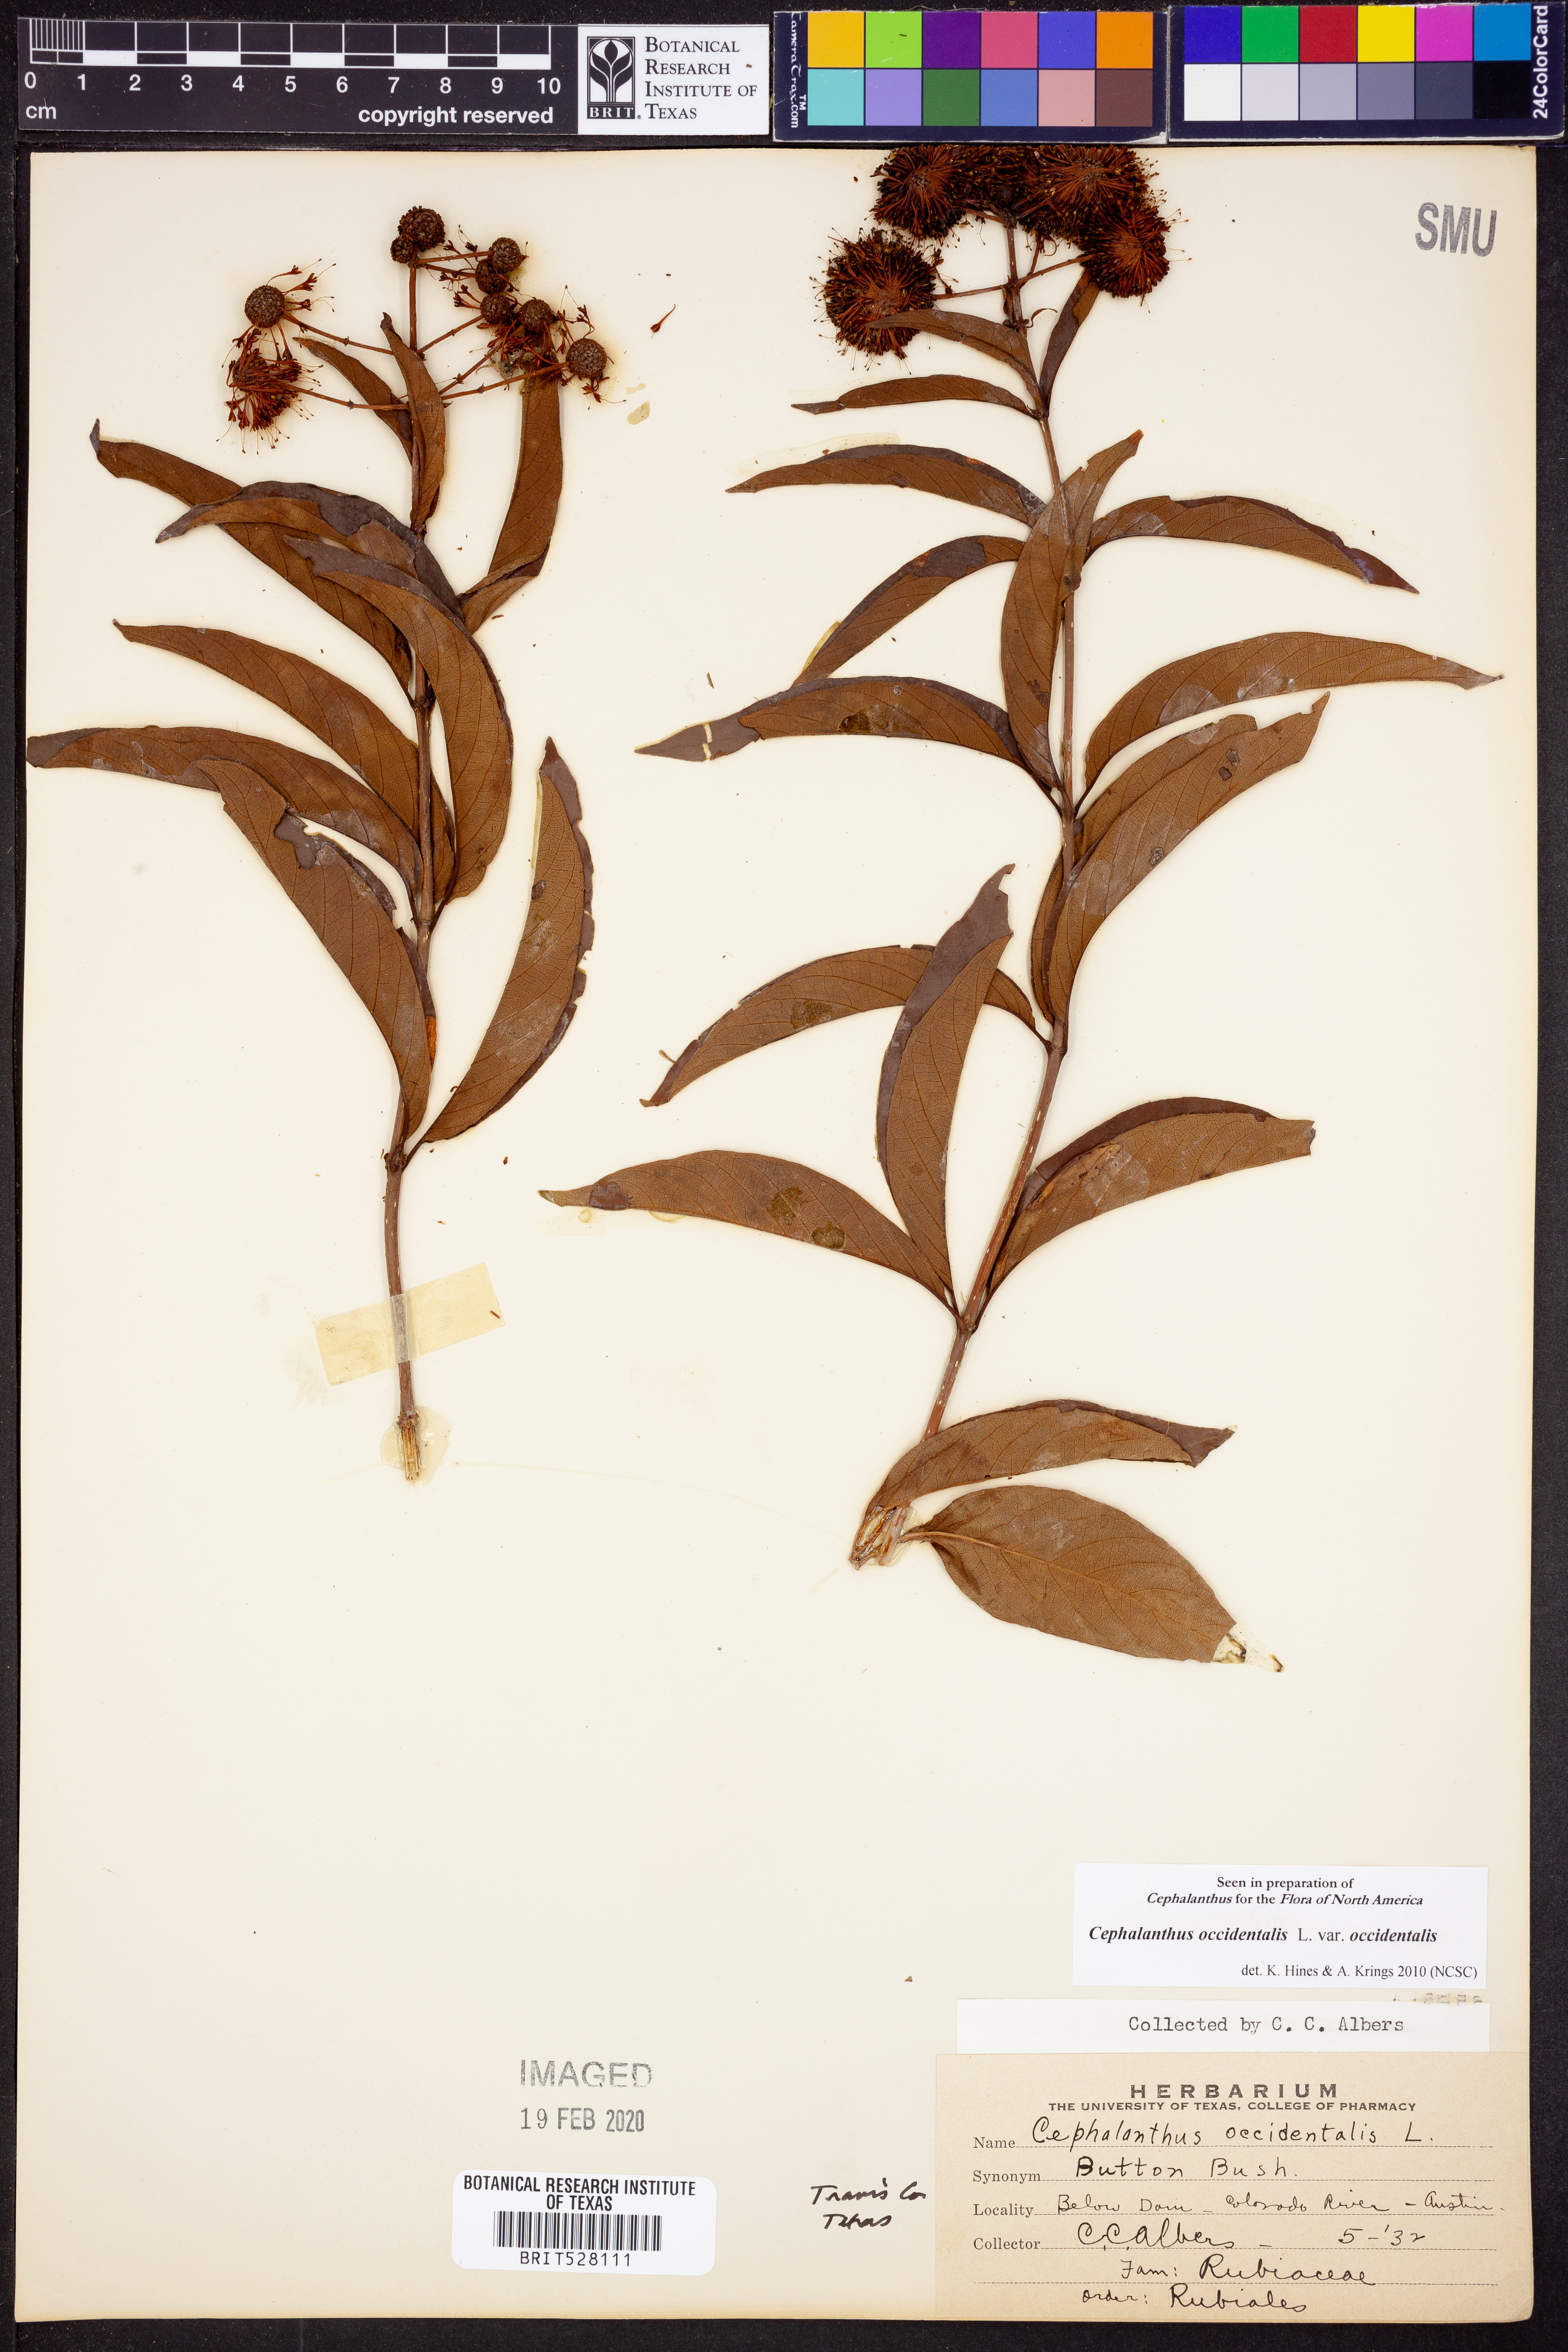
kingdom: Plantae
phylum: Tracheophyta
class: Magnoliopsida
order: Gentianales
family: Rubiaceae
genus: Cephalanthus
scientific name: Cephalanthus occidentalis
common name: Button-willow
